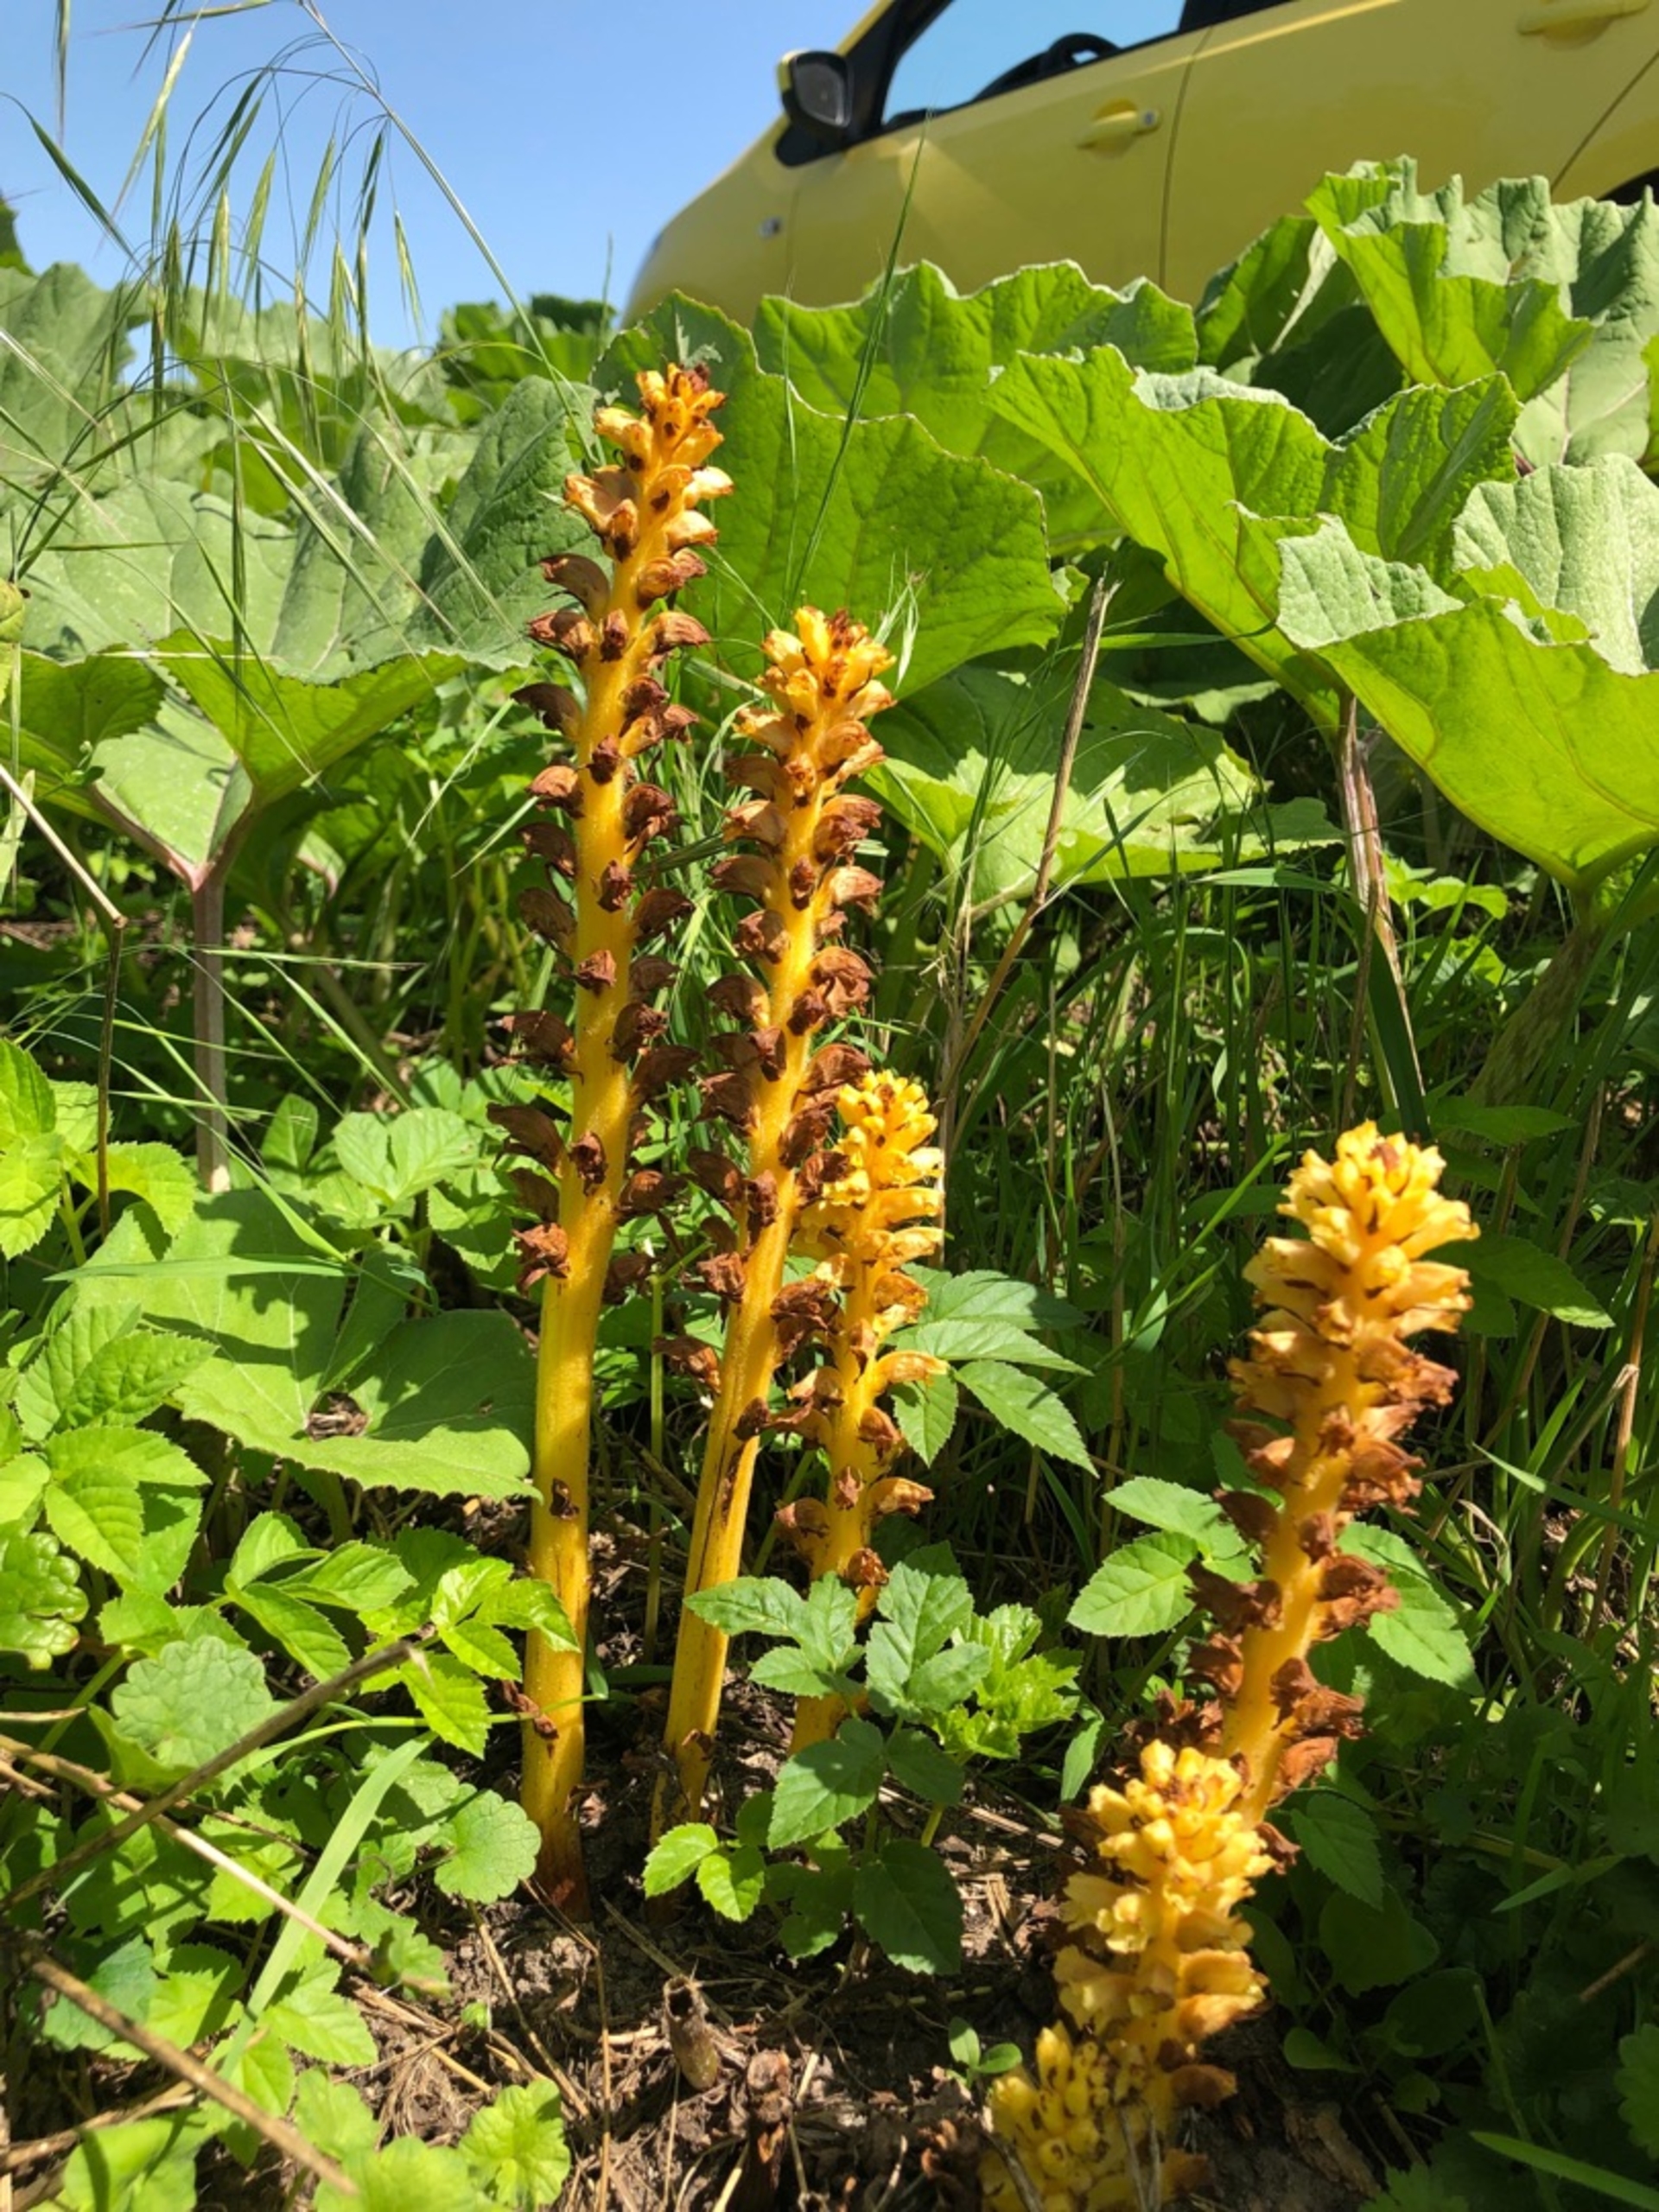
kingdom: Plantae
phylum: Tracheophyta
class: Magnoliopsida
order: Lamiales
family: Orobanchaceae
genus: Orobanche
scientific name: Orobanche flava
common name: Gul gyvelkvæler
